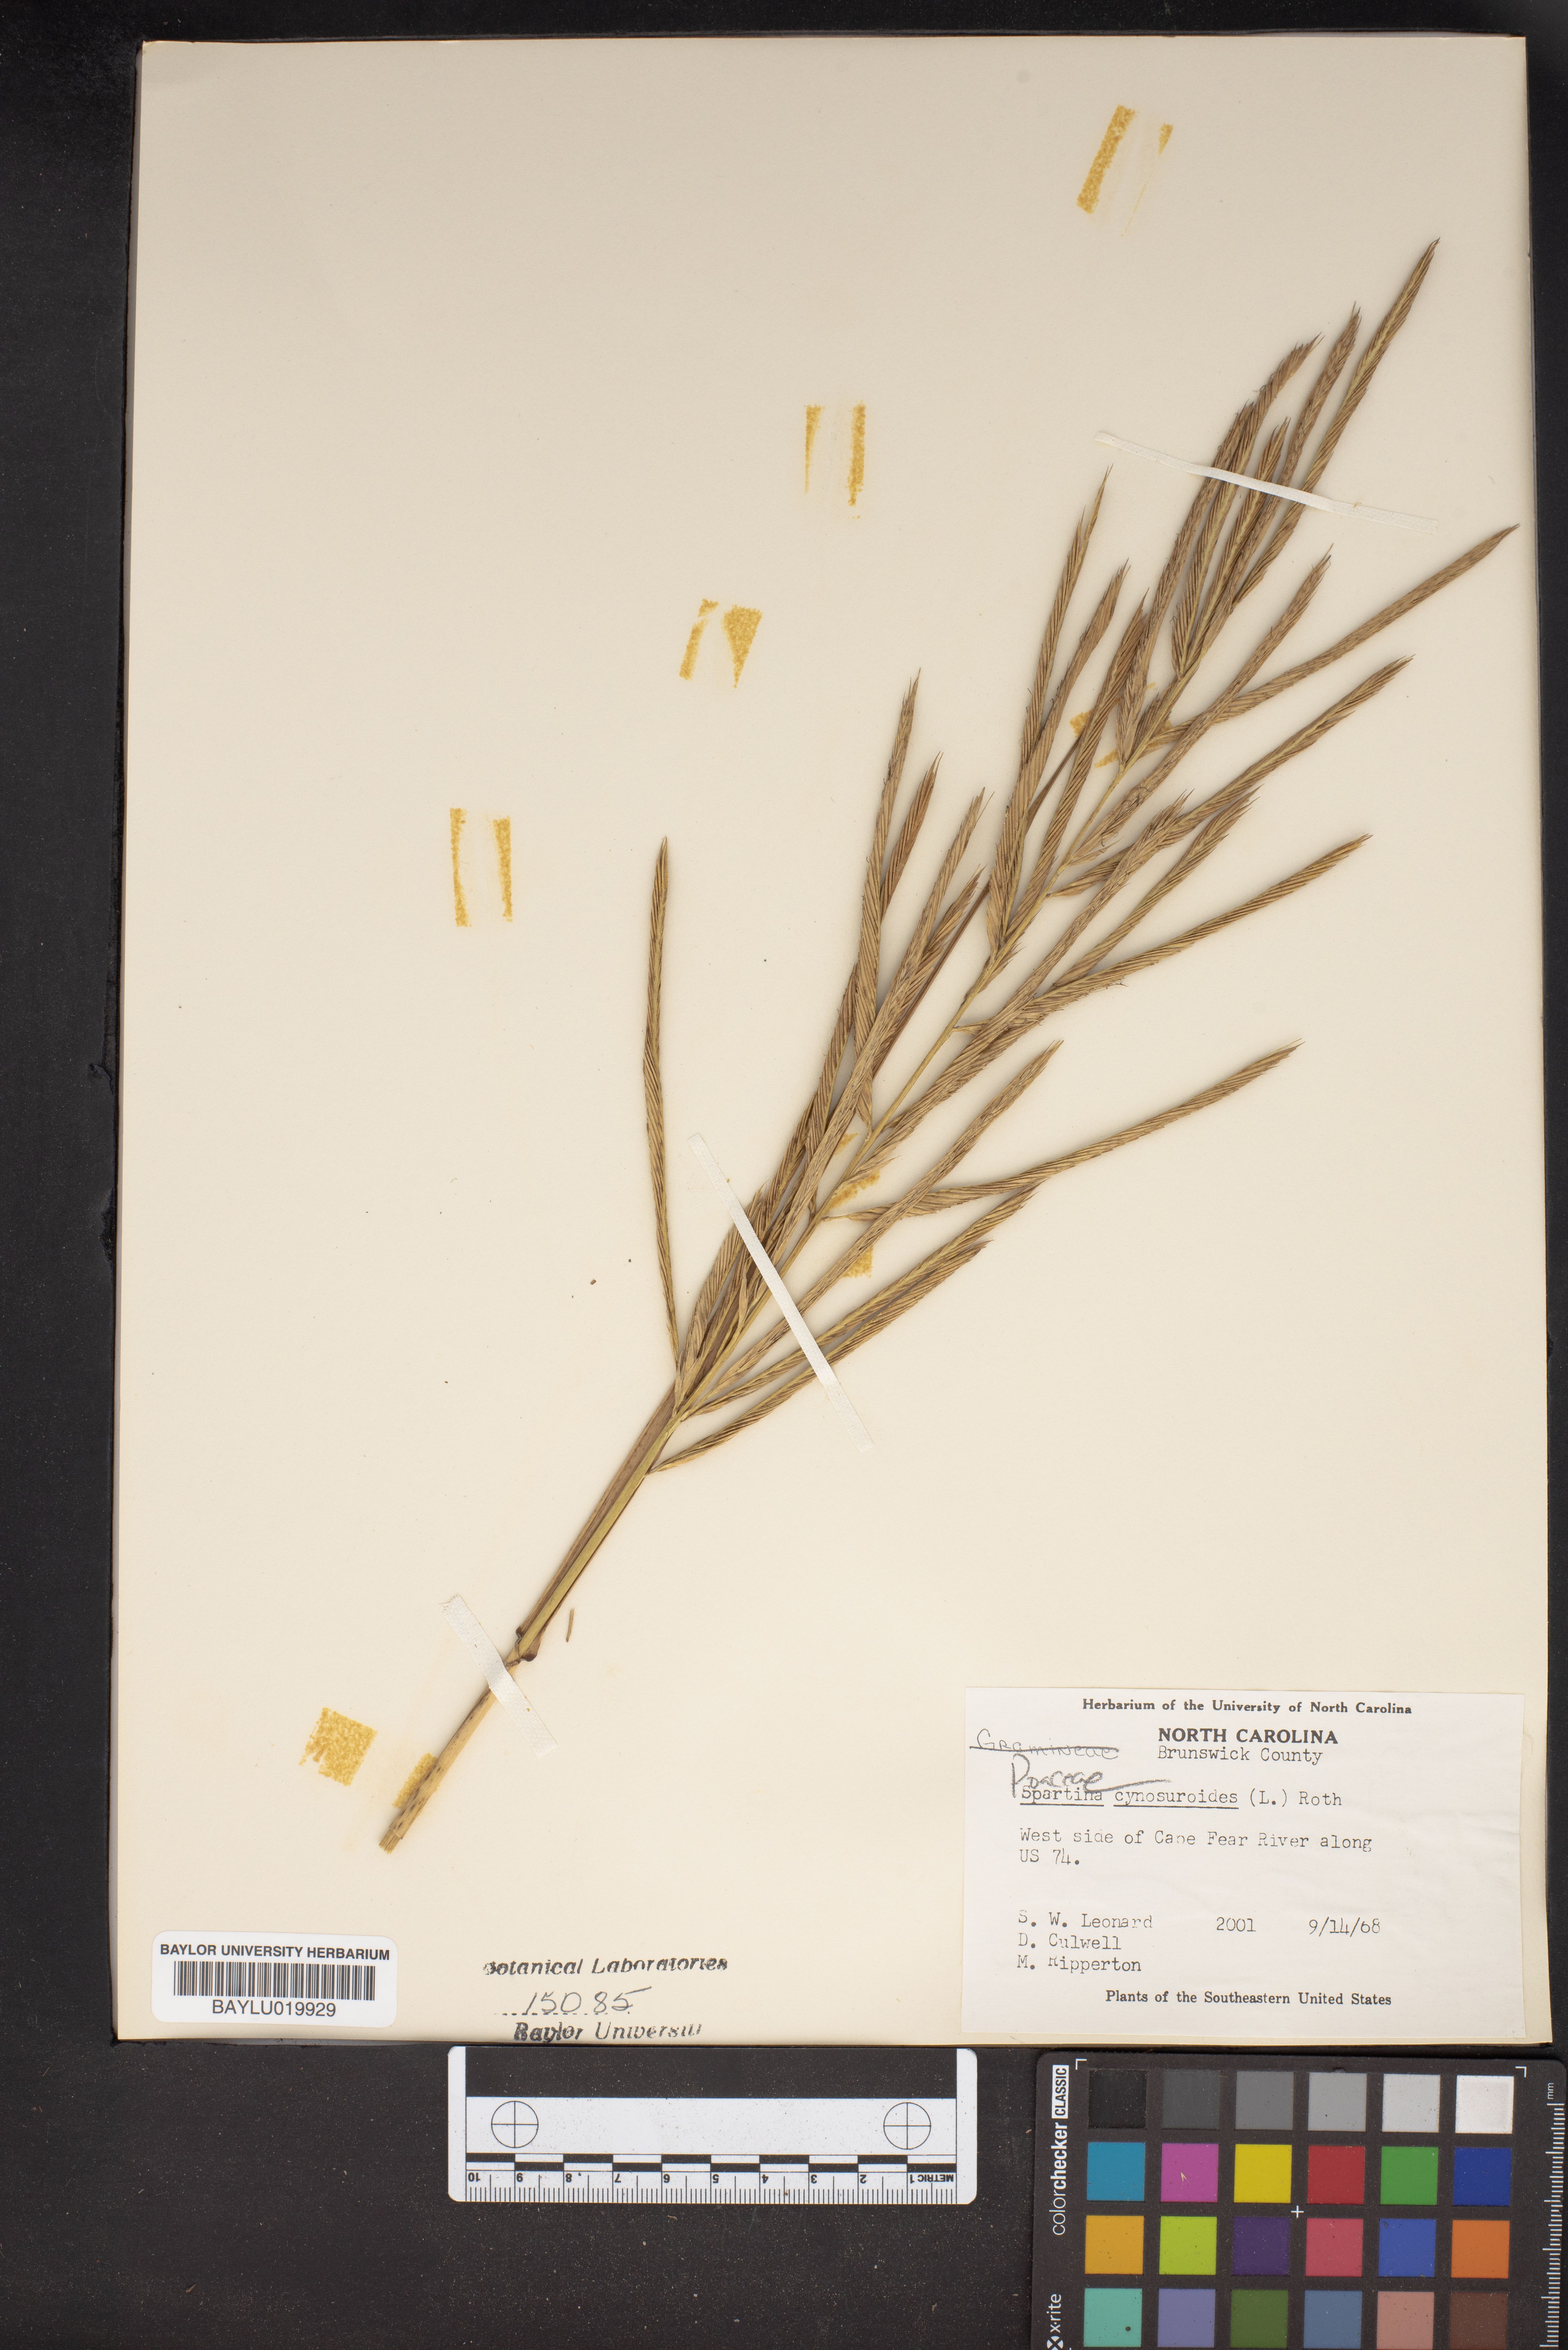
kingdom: Plantae
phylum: Tracheophyta
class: Liliopsida
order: Poales
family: Poaceae
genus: Sporobolus
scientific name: Sporobolus cynosuroides
